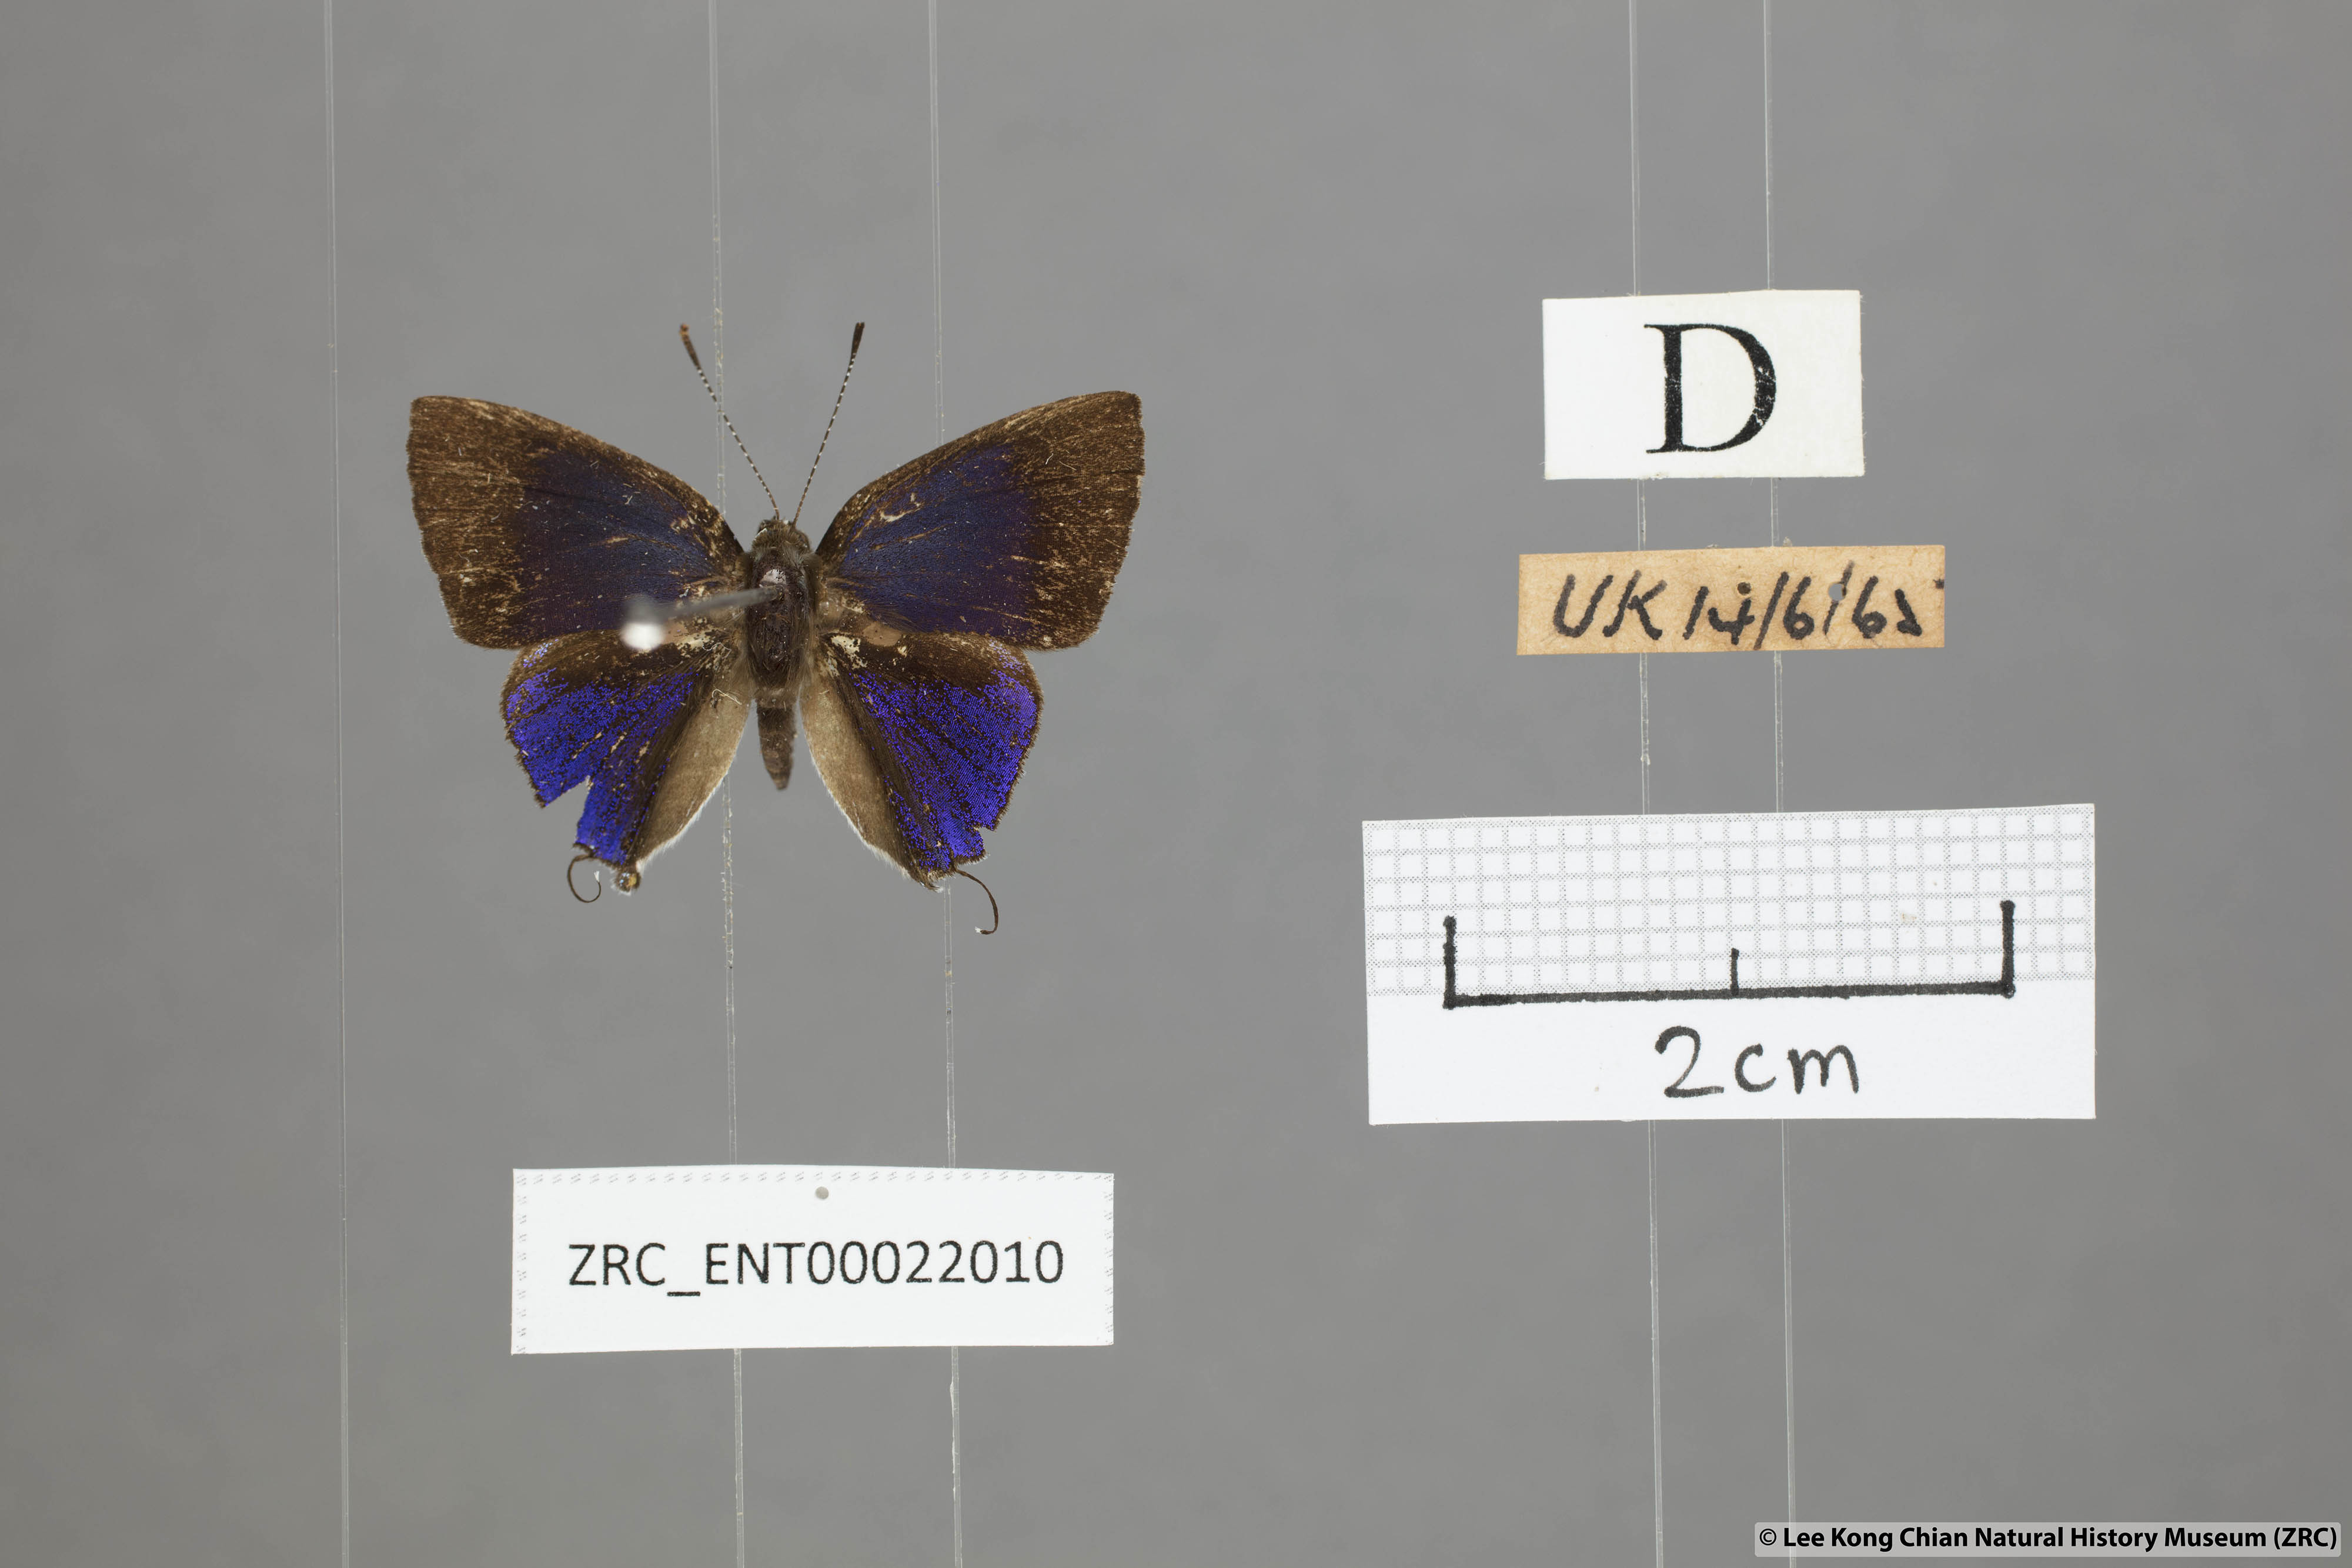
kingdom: Animalia
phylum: Arthropoda
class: Insecta
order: Lepidoptera
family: Lycaenidae
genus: Sinthusa
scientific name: Sinthusa nasaka
